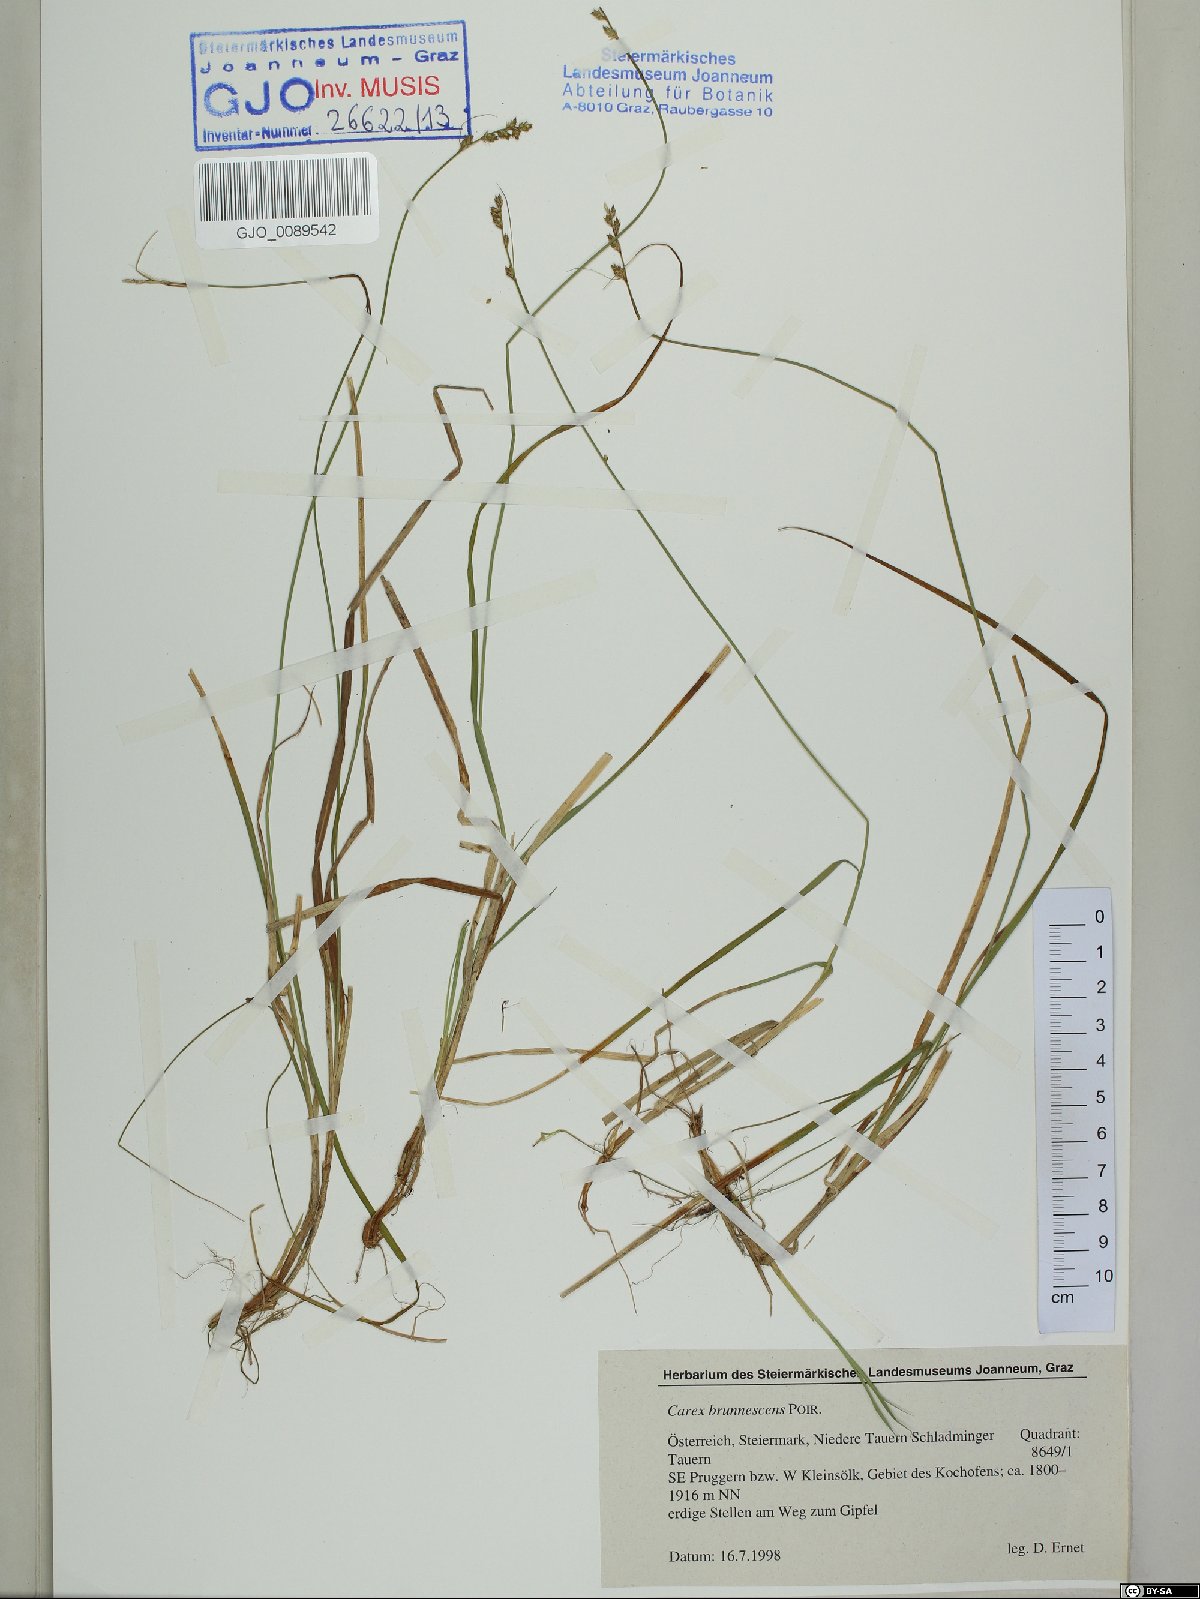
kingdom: Plantae
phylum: Tracheophyta
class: Liliopsida
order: Poales
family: Cyperaceae
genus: Carex
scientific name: Carex brunnescens
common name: Brown sedge
